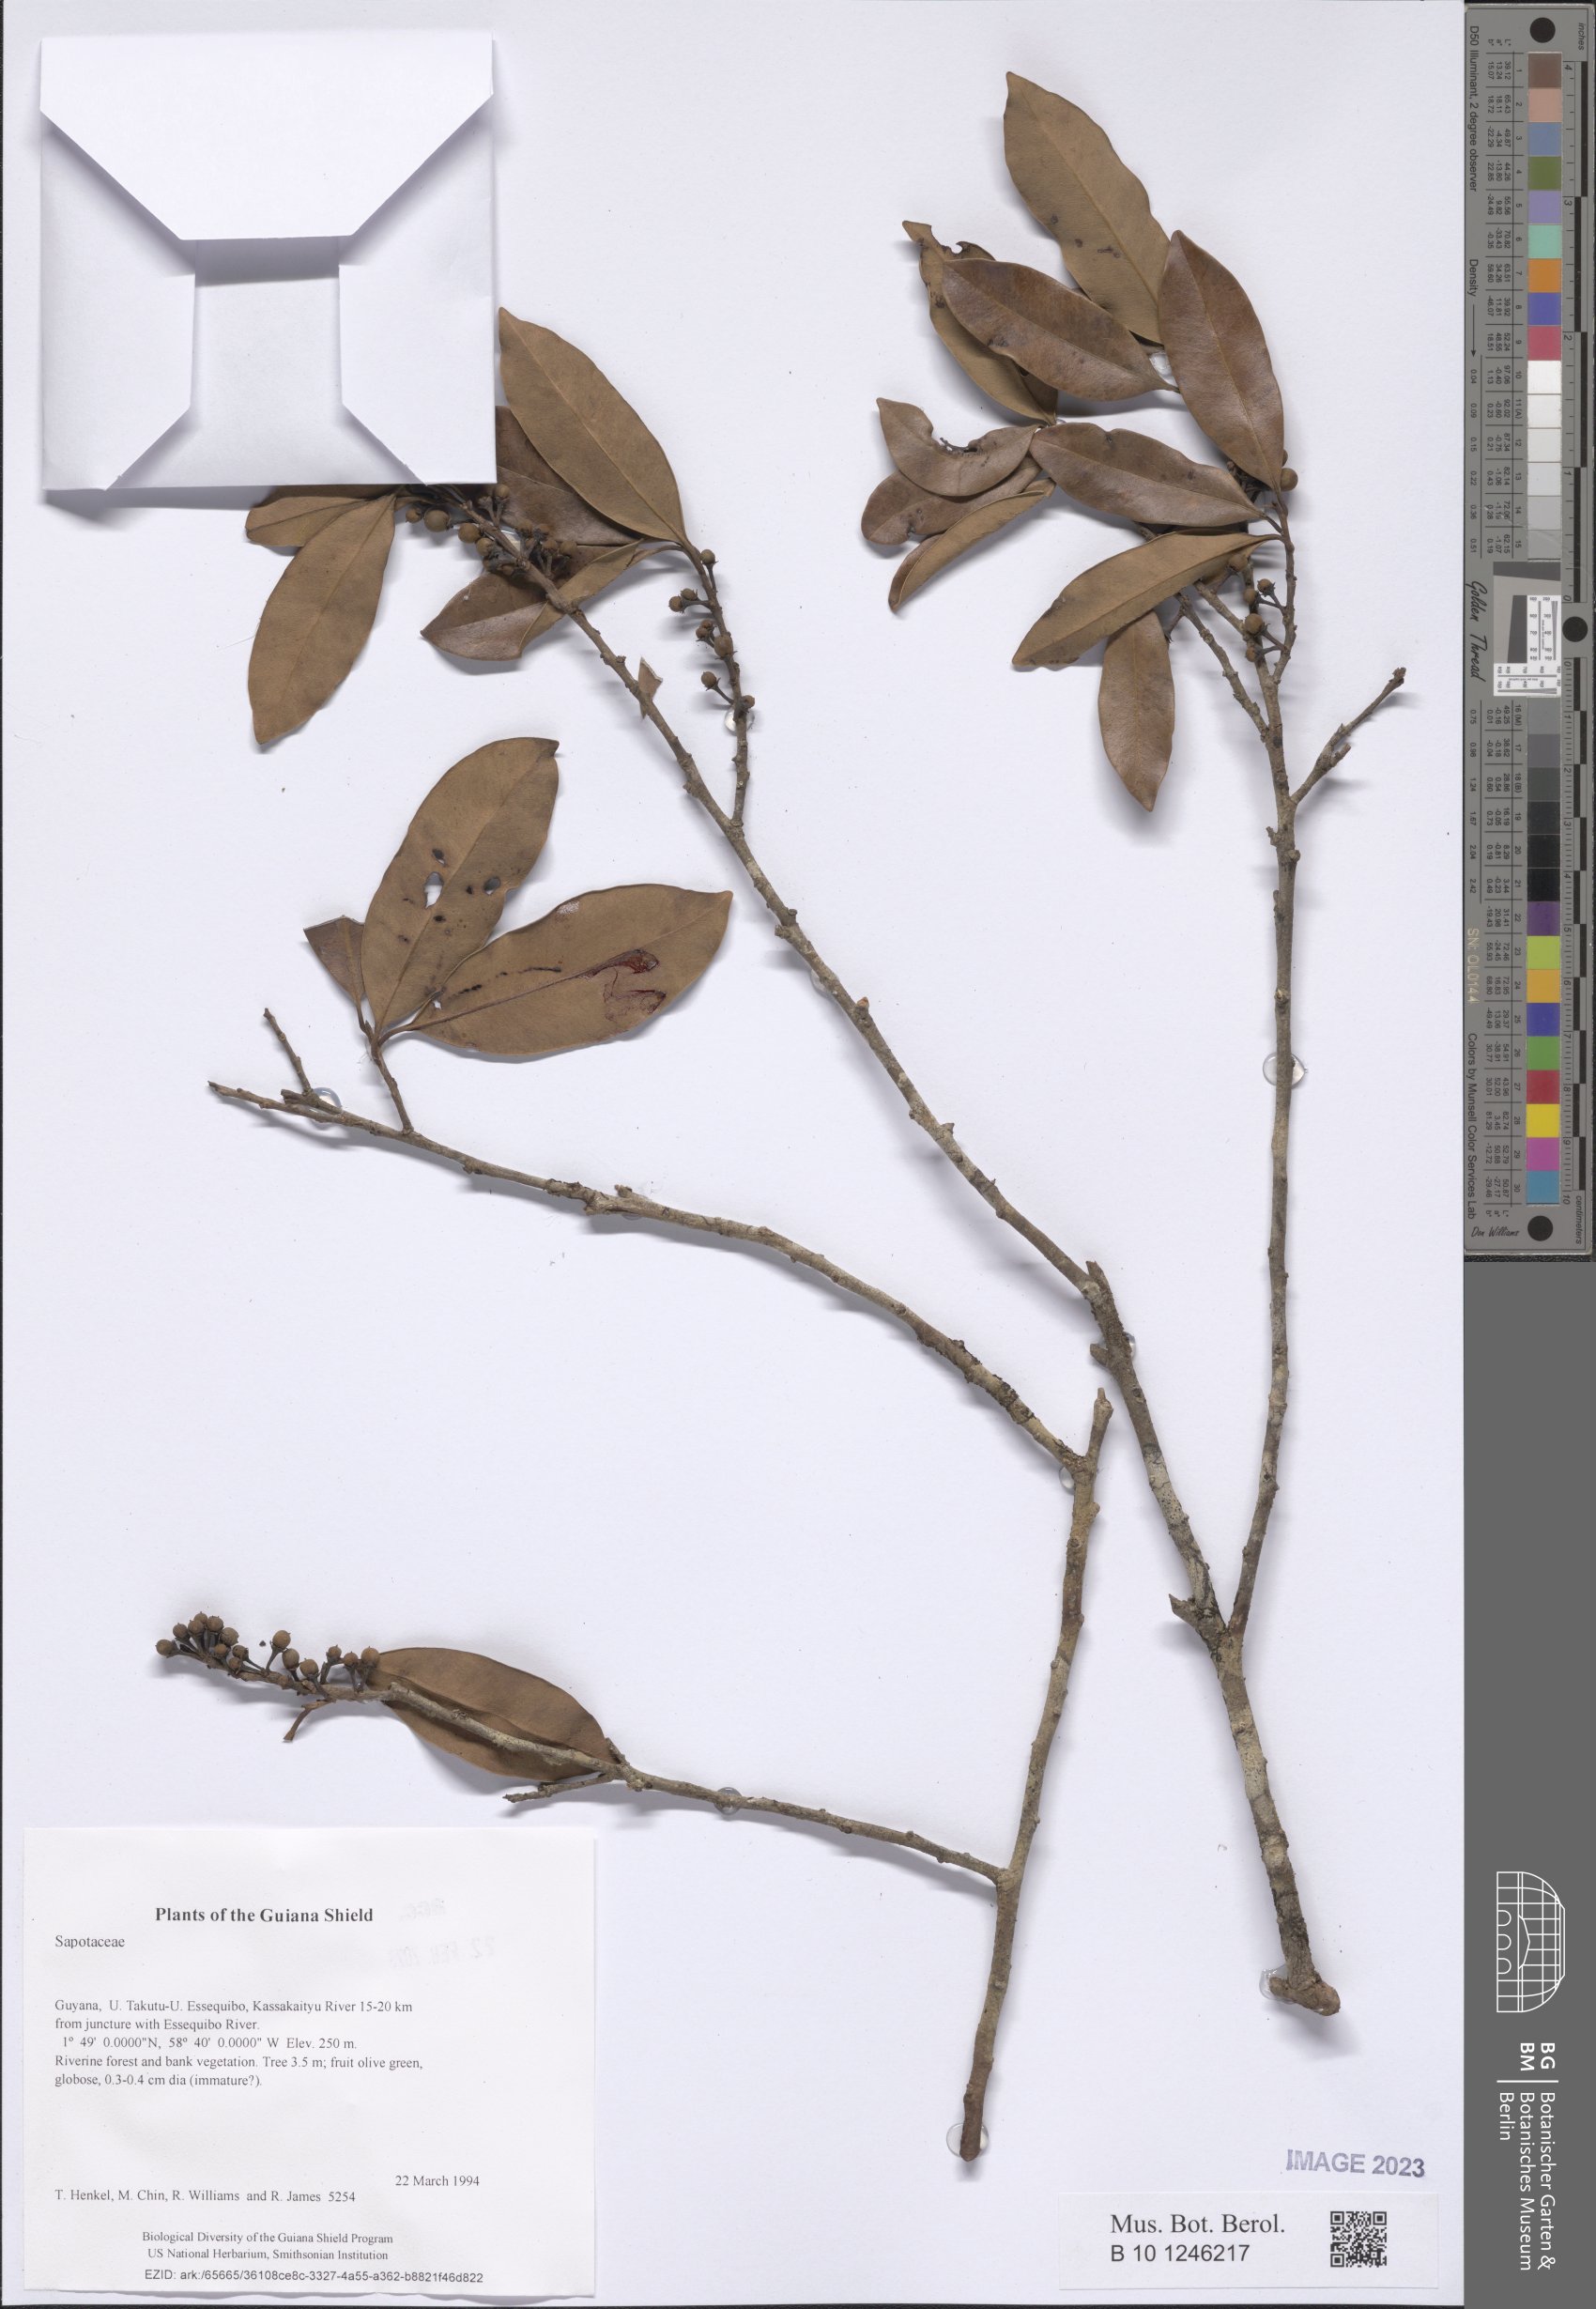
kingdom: Plantae
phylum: Tracheophyta
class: Magnoliopsida
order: Ericales
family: Sapotaceae
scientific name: Sapotaceae
